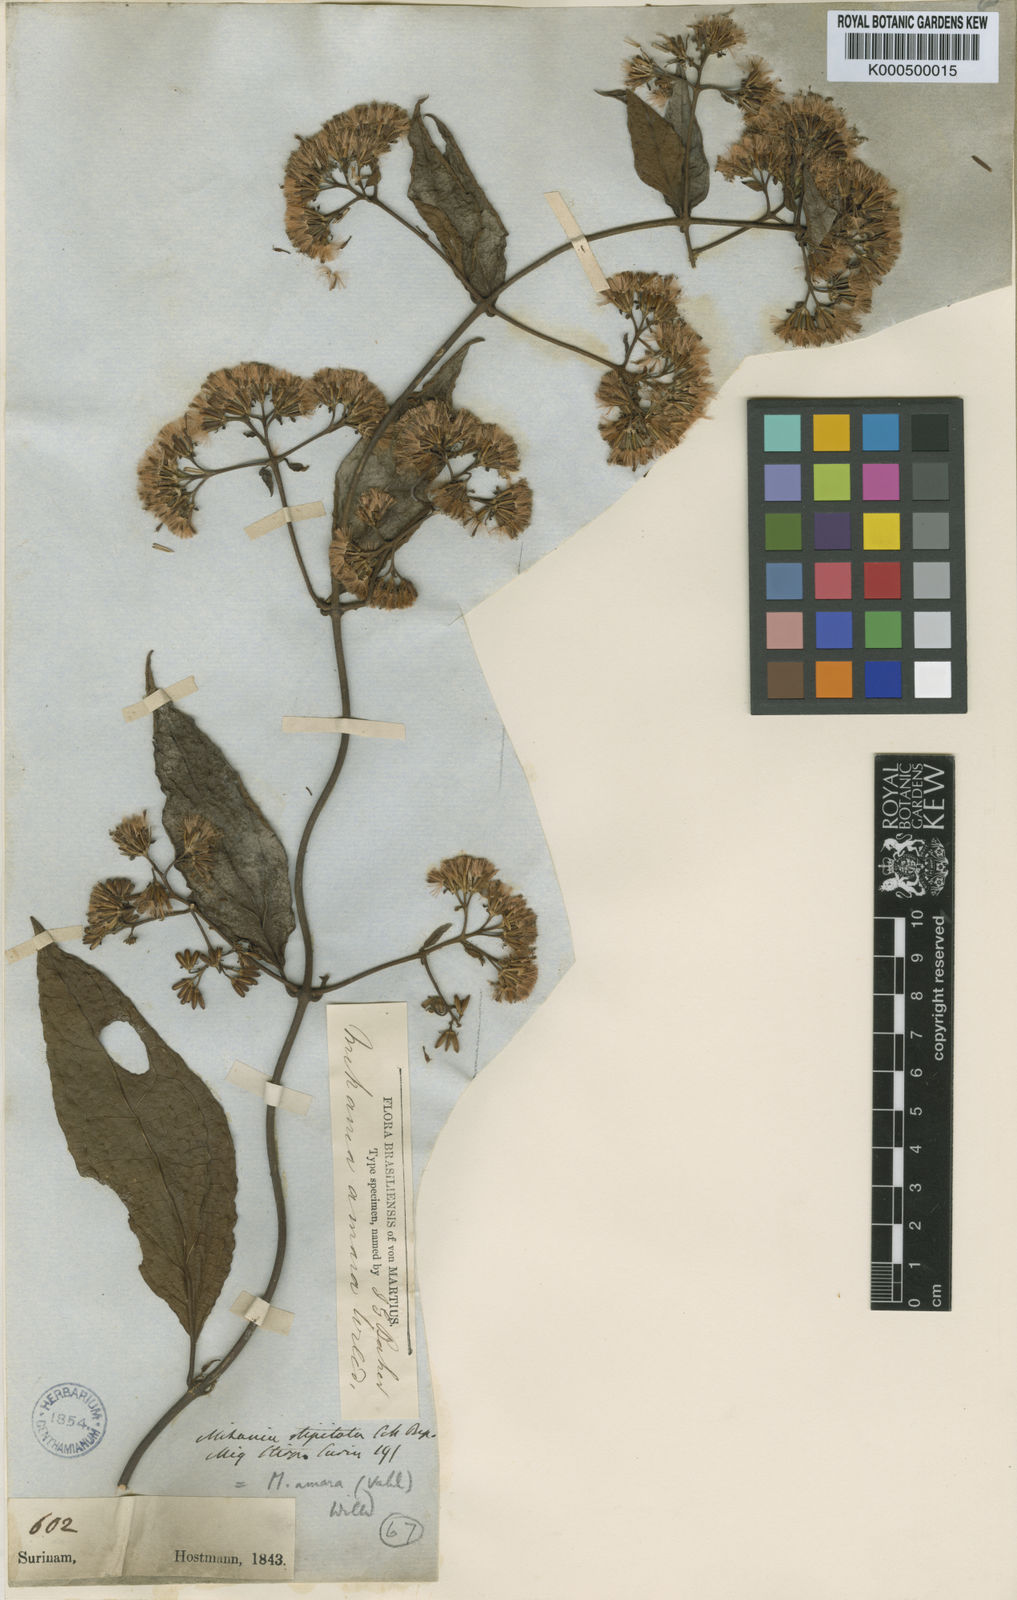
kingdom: Plantae
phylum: Tracheophyta
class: Magnoliopsida
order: Asterales
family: Asteraceae
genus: Mikania
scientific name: Mikania parviflora
